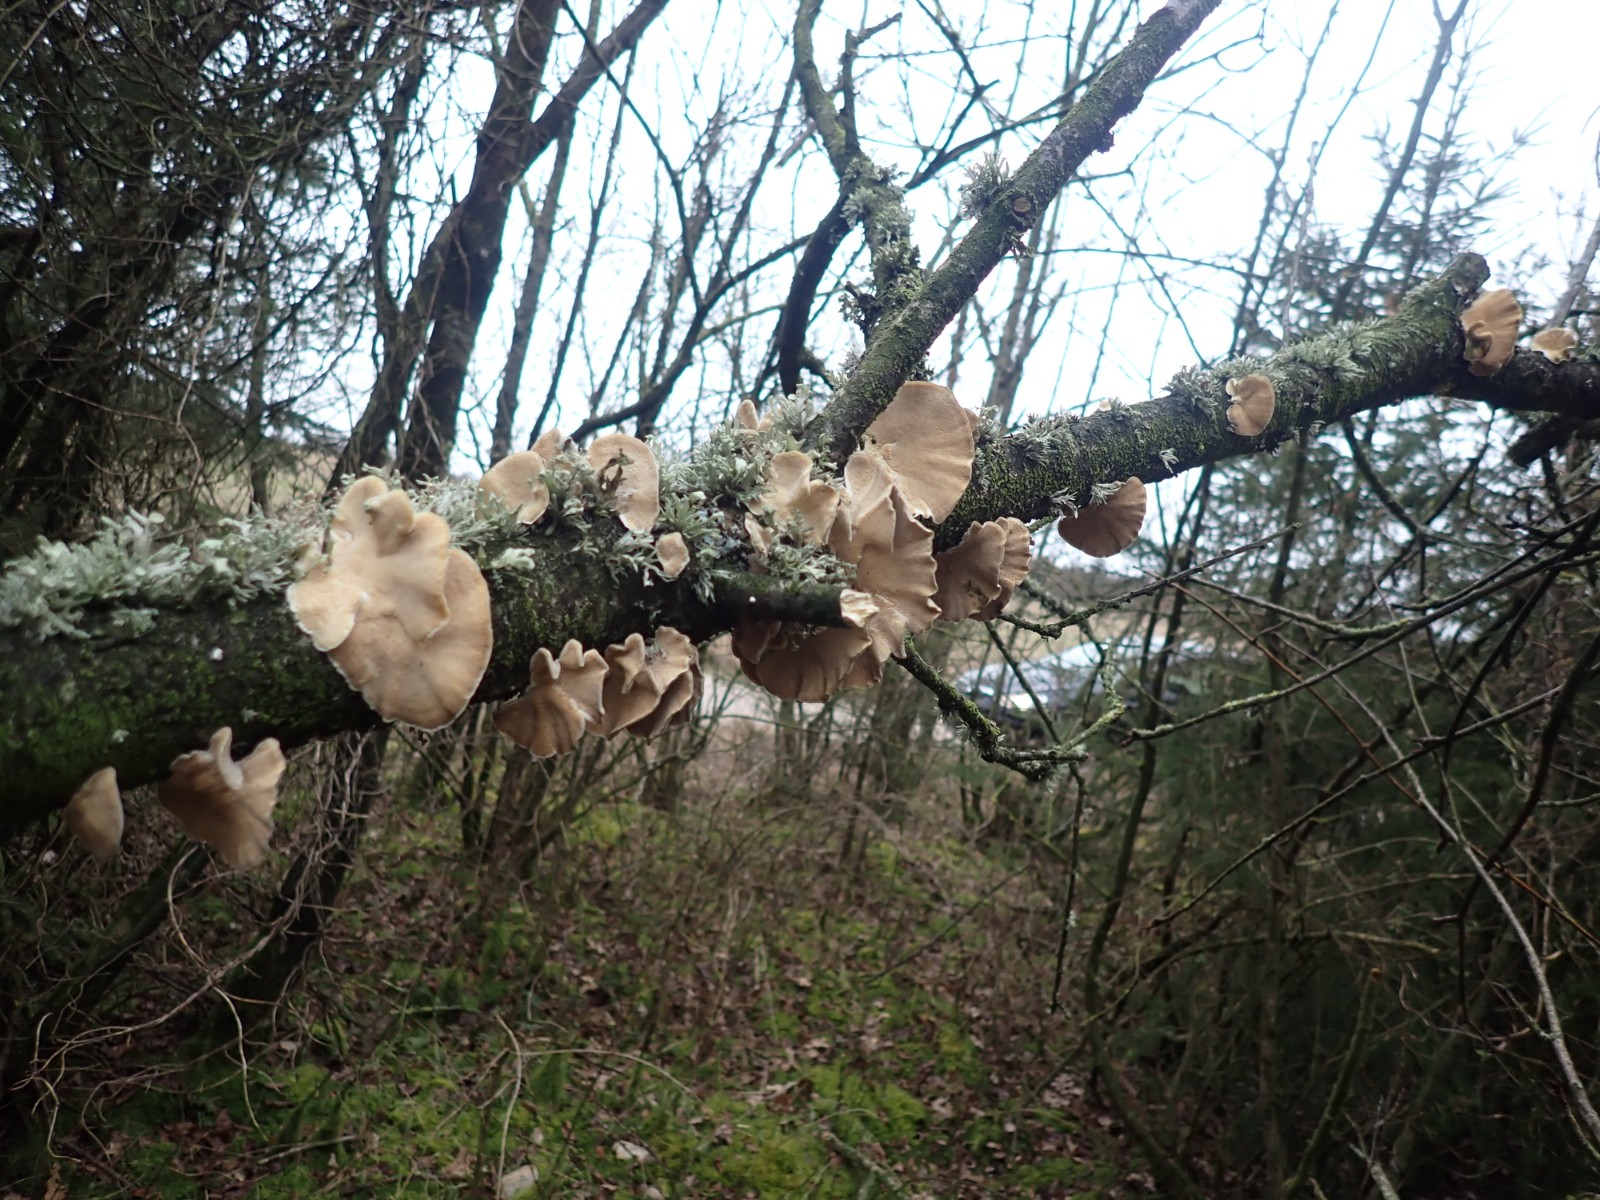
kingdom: Fungi
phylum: Basidiomycota
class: Agaricomycetes
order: Polyporales
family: Polyporaceae
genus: Trametes
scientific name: Trametes ochracea
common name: bæltet læderporesvamp
